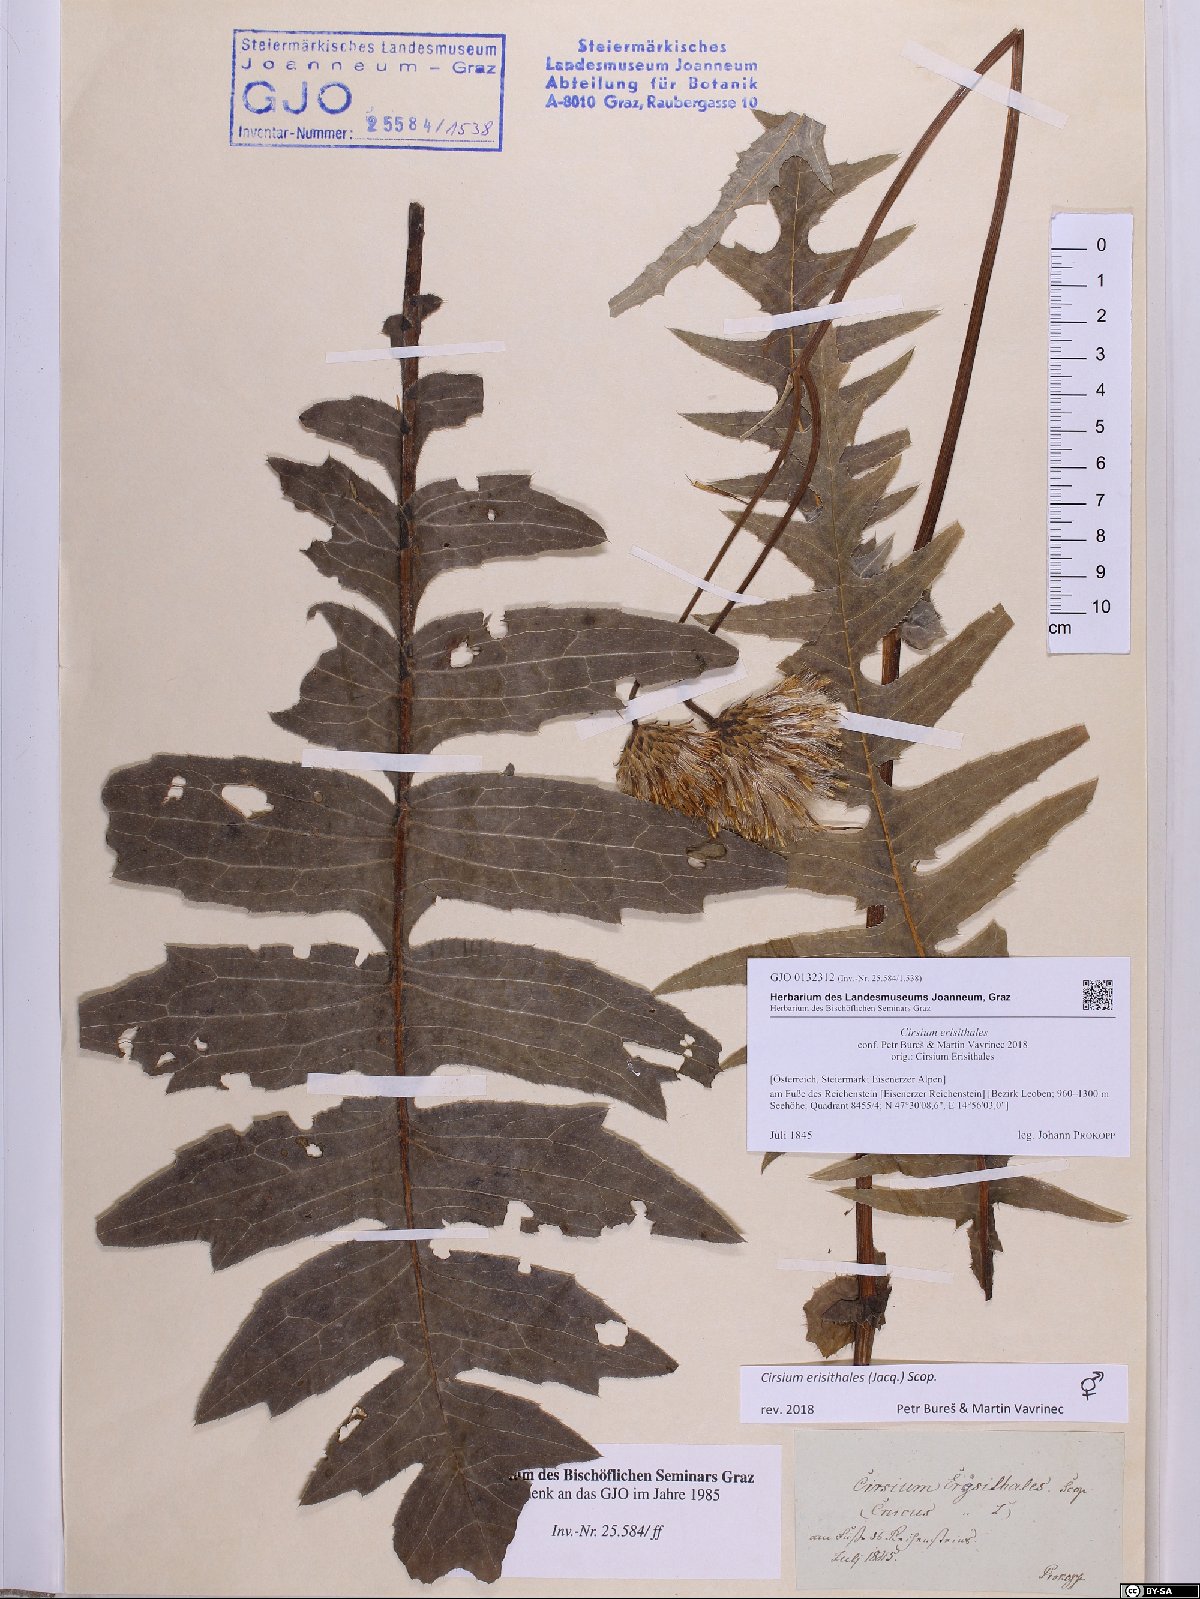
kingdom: Plantae
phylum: Tracheophyta
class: Magnoliopsida
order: Asterales
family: Asteraceae
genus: Cirsium
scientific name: Cirsium erisithales
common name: Yellow thistle
